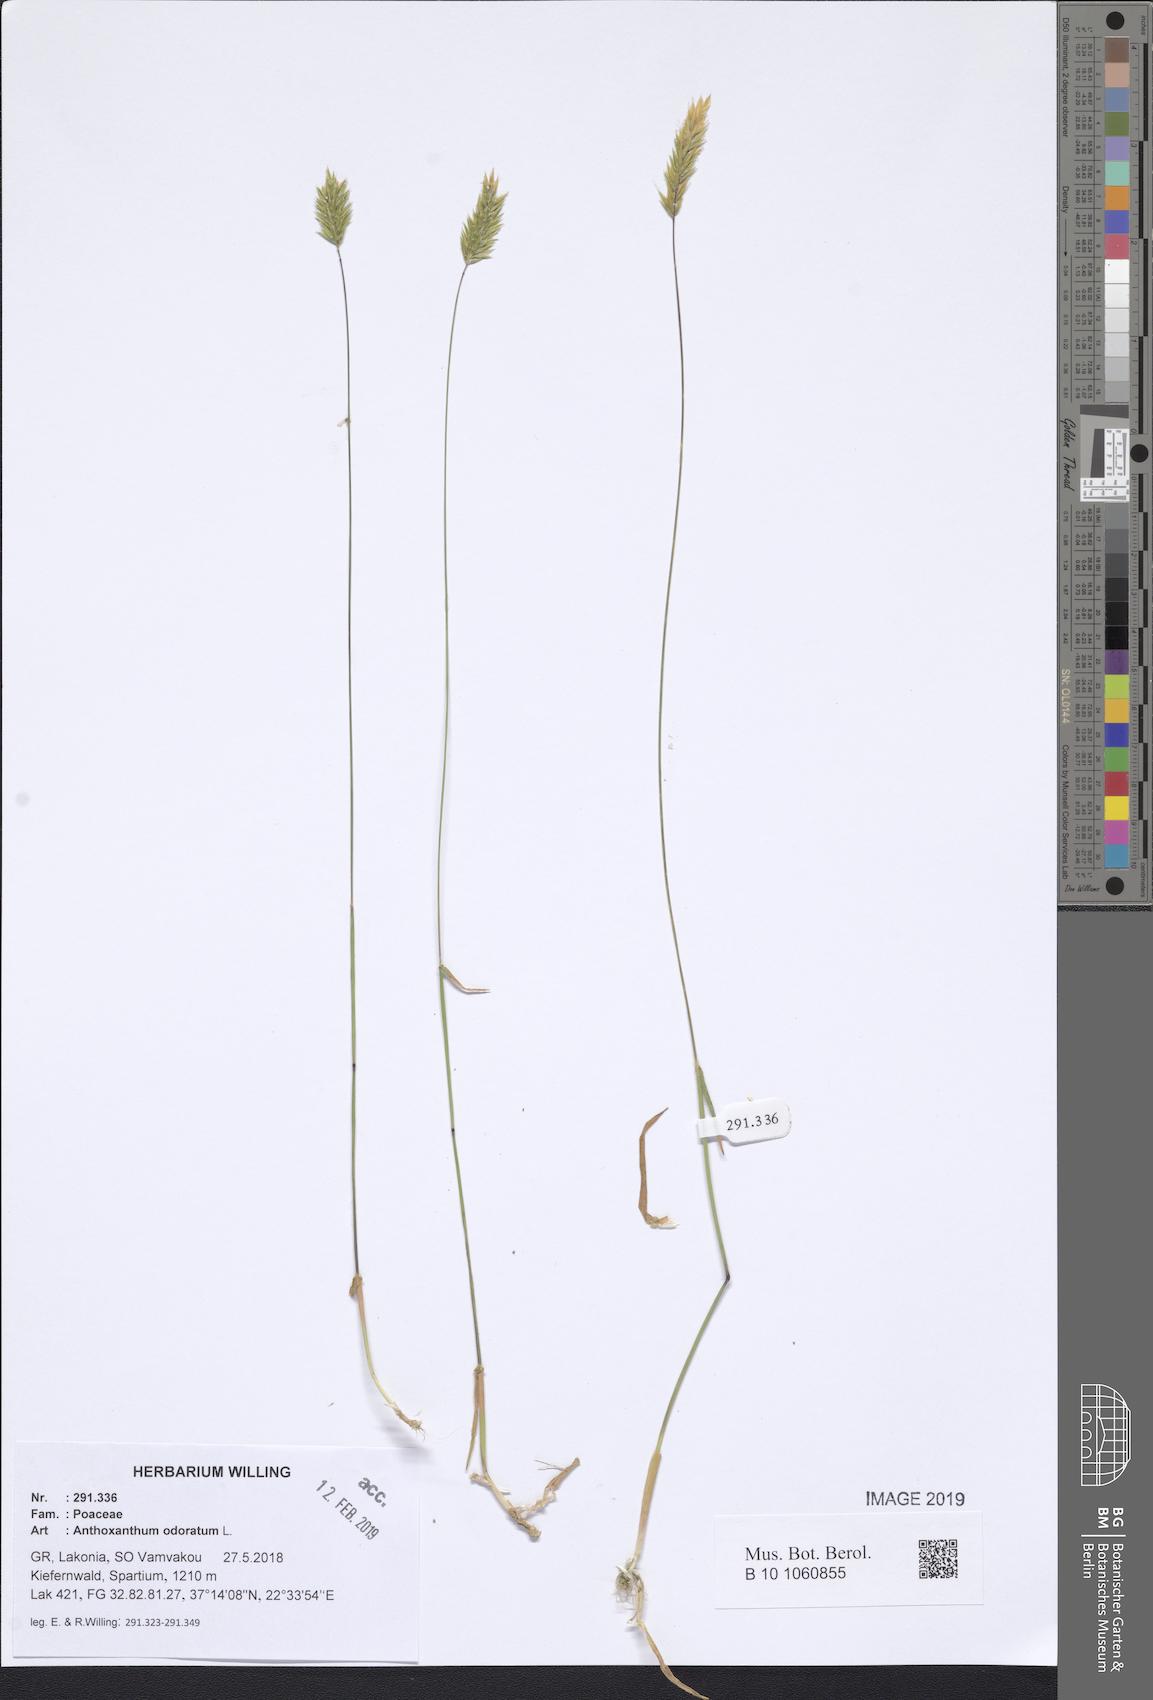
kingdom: Plantae
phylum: Tracheophyta
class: Liliopsida
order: Poales
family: Poaceae
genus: Anthoxanthum
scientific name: Anthoxanthum odoratum
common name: Sweet vernalgrass
